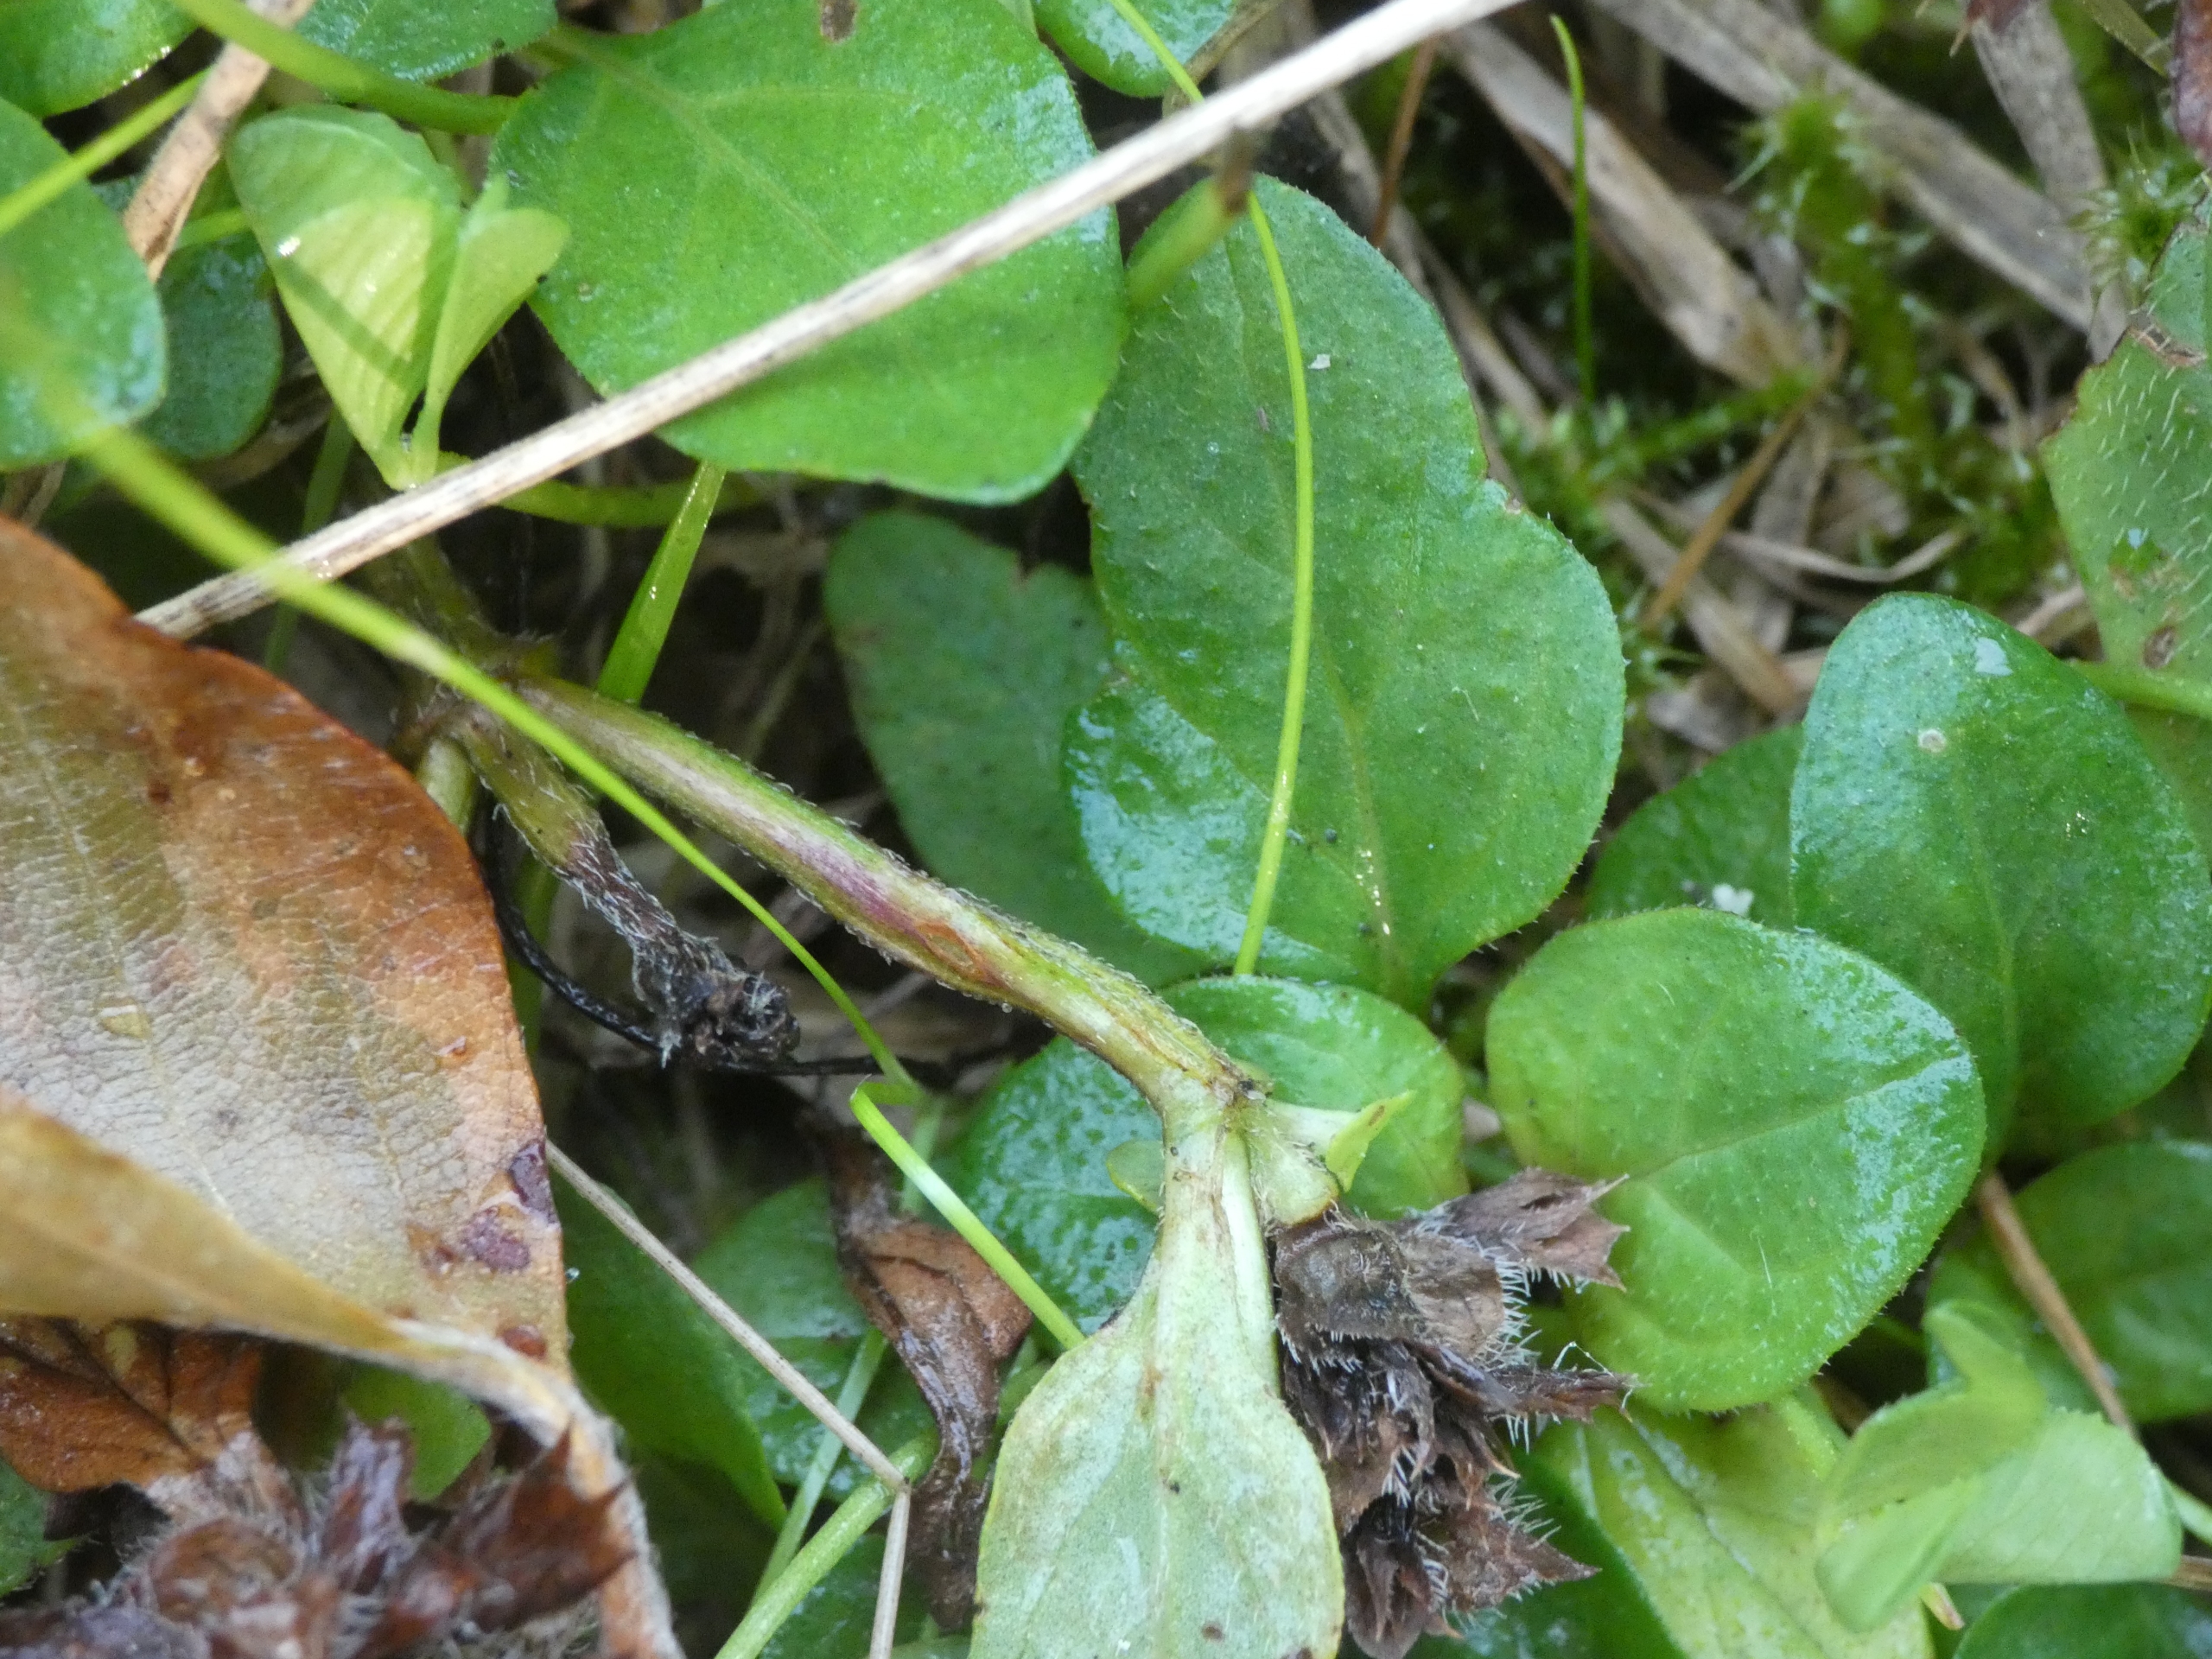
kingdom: Plantae
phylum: Tracheophyta
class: Magnoliopsida
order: Lamiales
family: Lamiaceae
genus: Prunella
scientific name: Prunella vulgaris
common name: Almindelig brunelle
